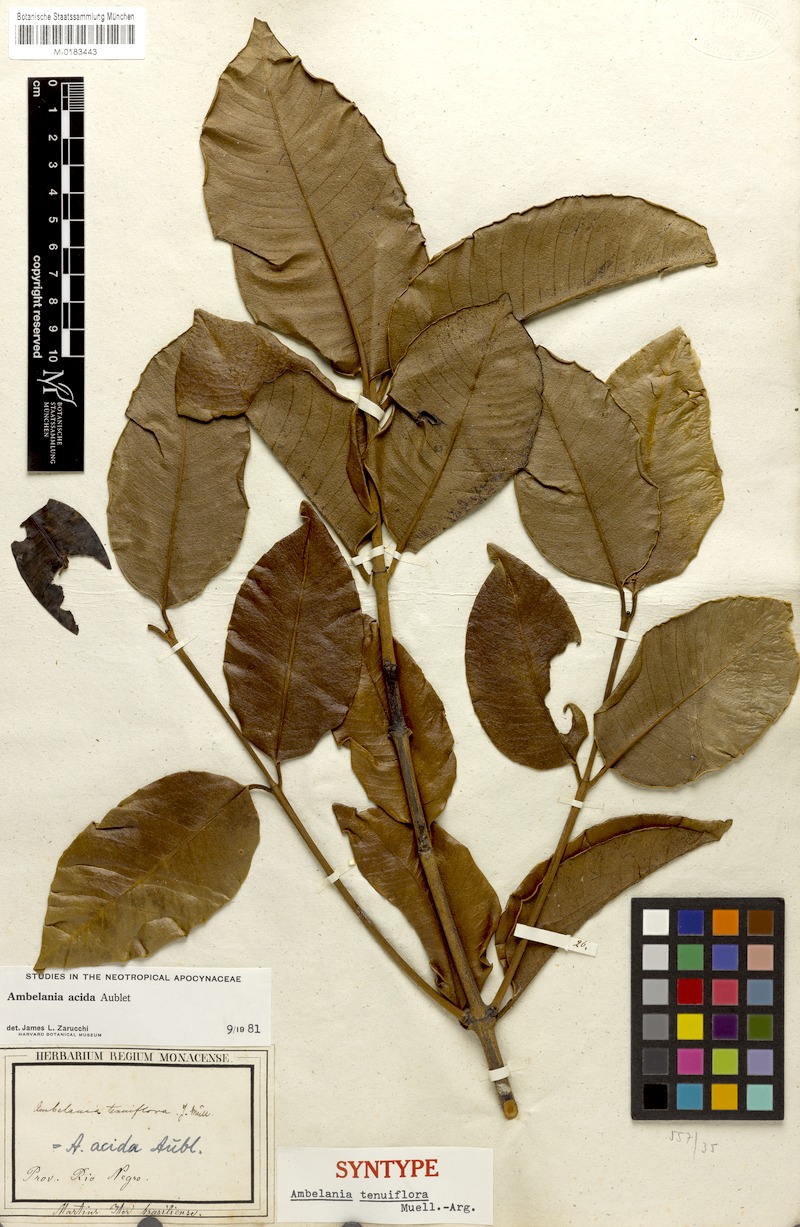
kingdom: Plantae
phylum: Tracheophyta
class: Magnoliopsida
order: Gentianales
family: Apocynaceae
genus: Ambelania
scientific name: Ambelania acida
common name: Bagasse
